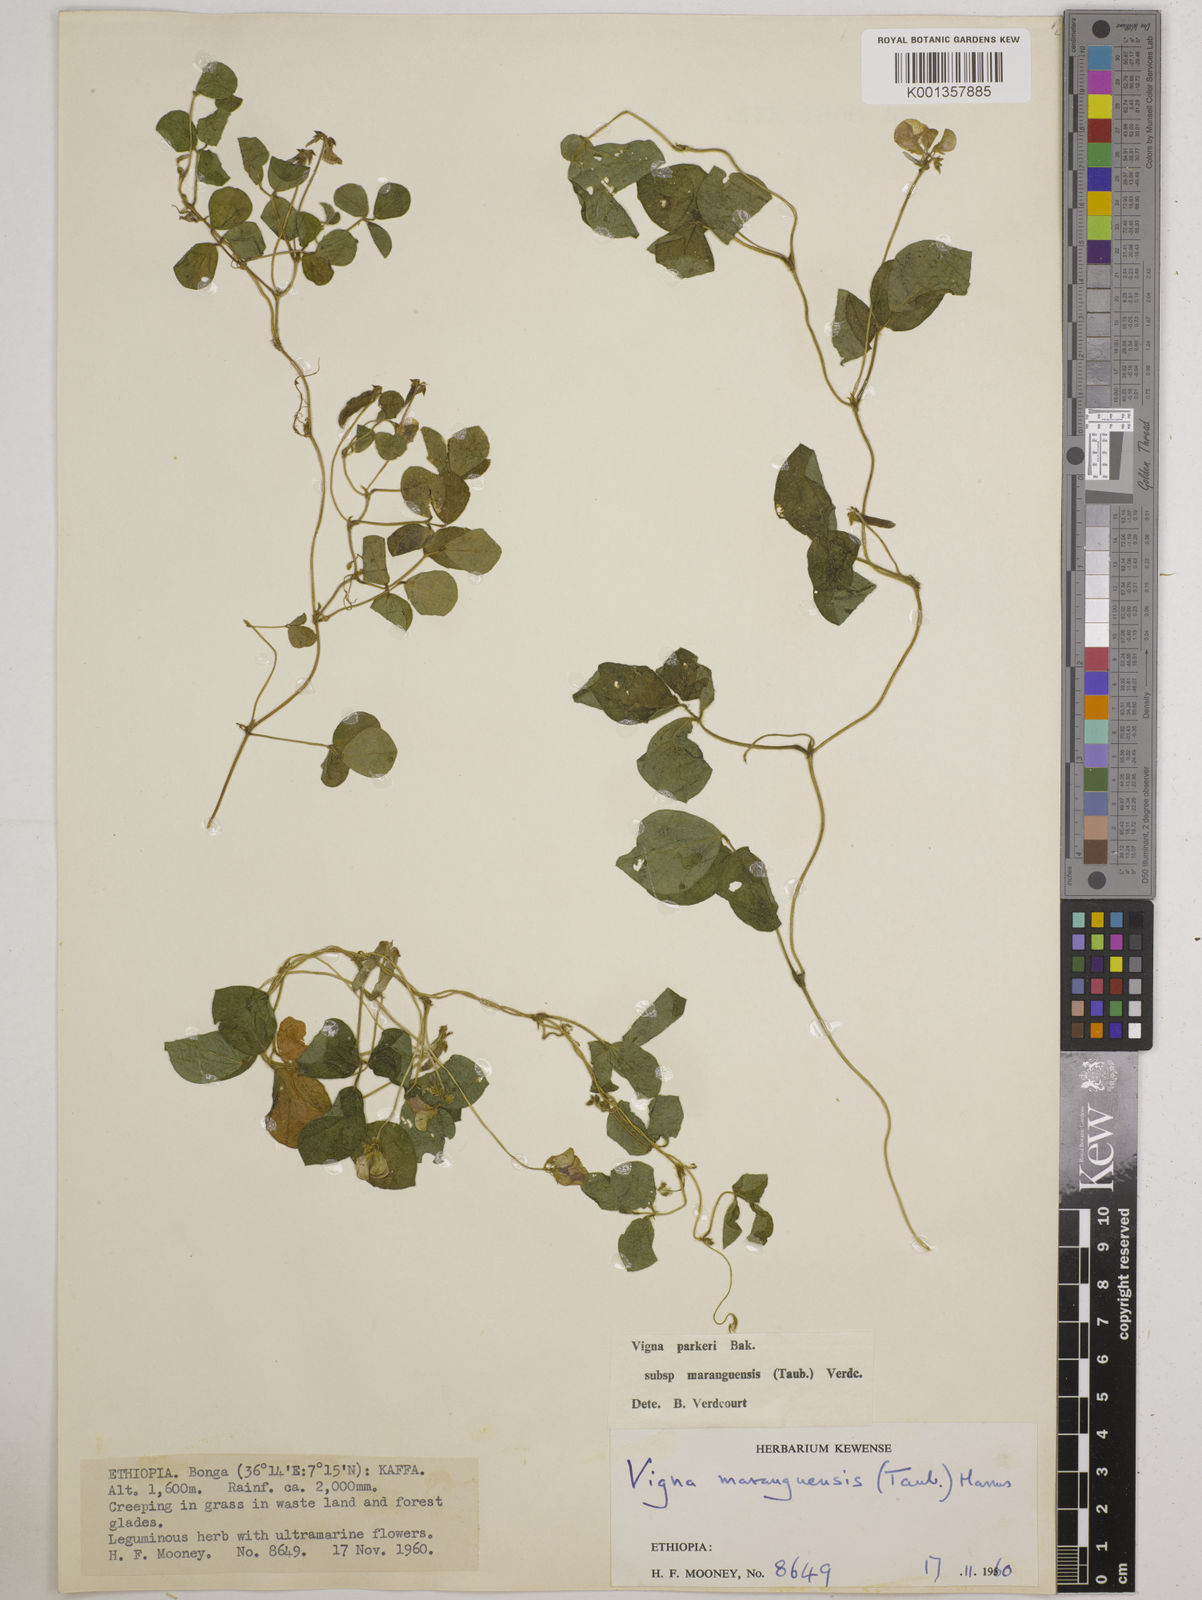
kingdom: Plantae
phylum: Tracheophyta
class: Magnoliopsida
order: Fabales
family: Fabaceae
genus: Vigna
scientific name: Vigna
